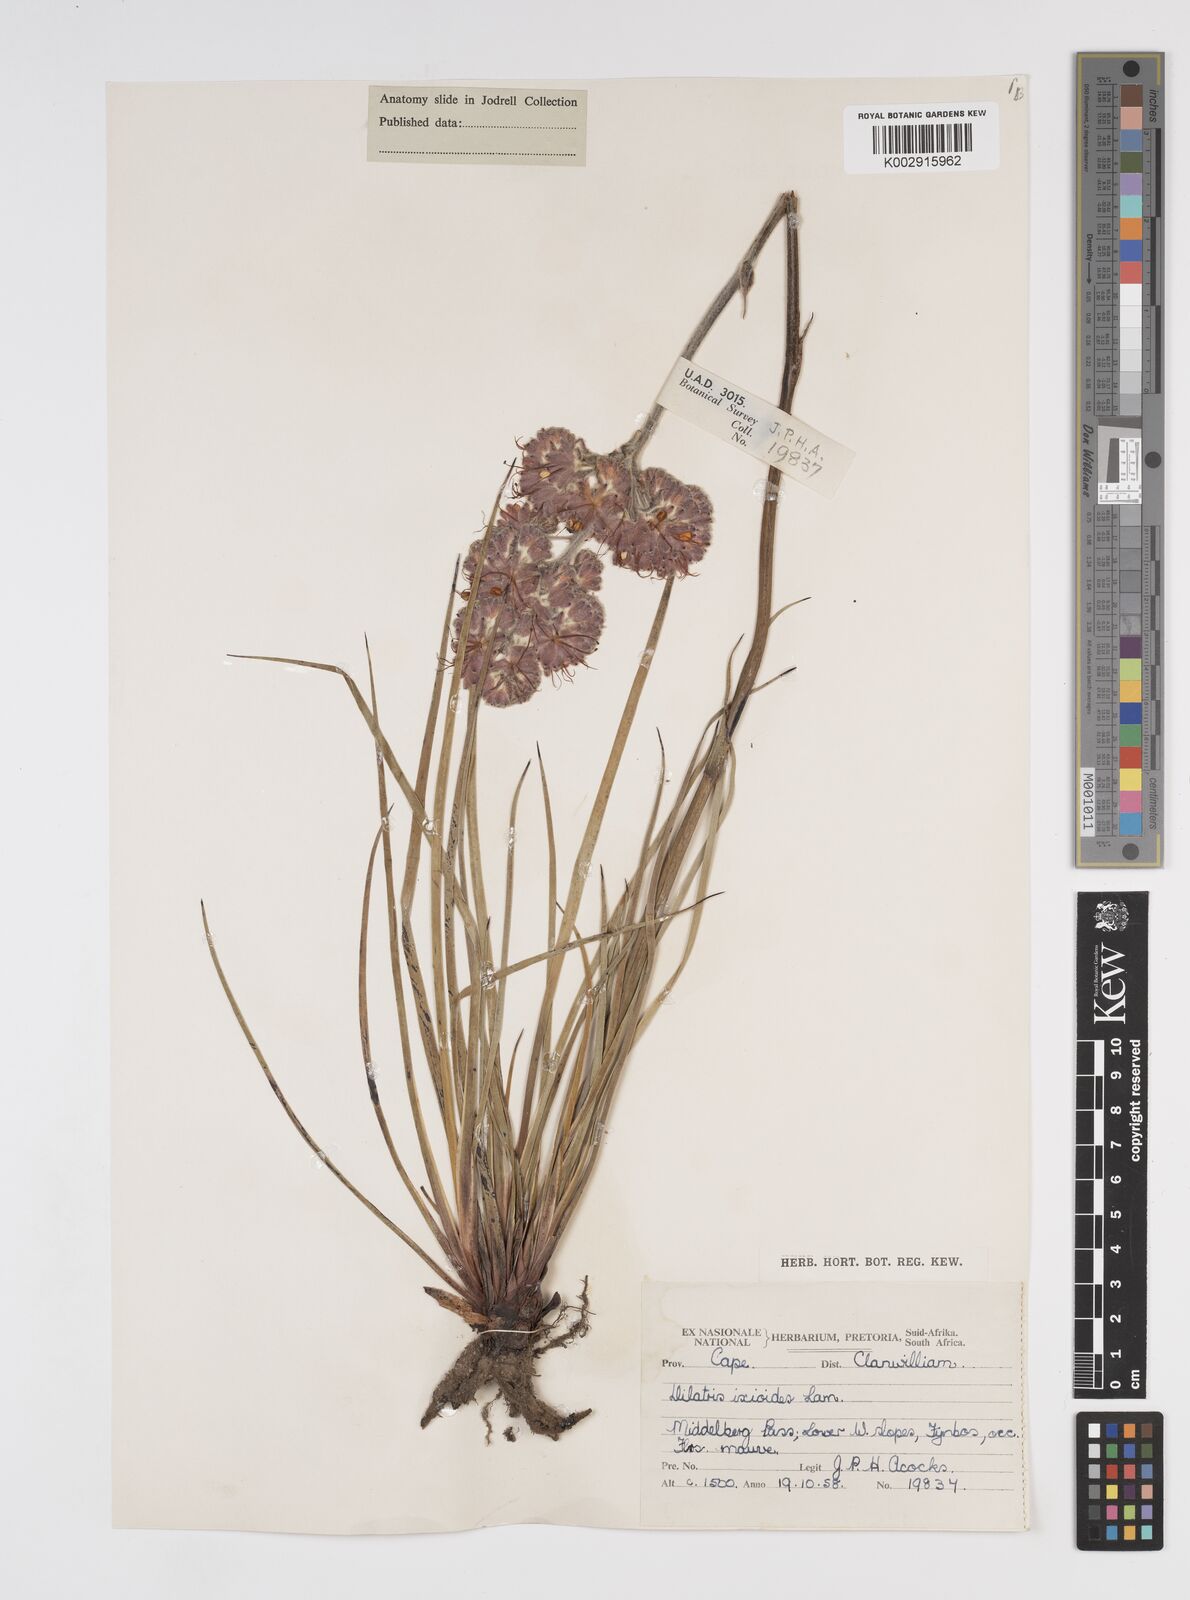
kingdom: Plantae
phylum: Tracheophyta
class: Liliopsida
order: Commelinales
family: Haemodoraceae
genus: Dilatris
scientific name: Dilatris ixioides
